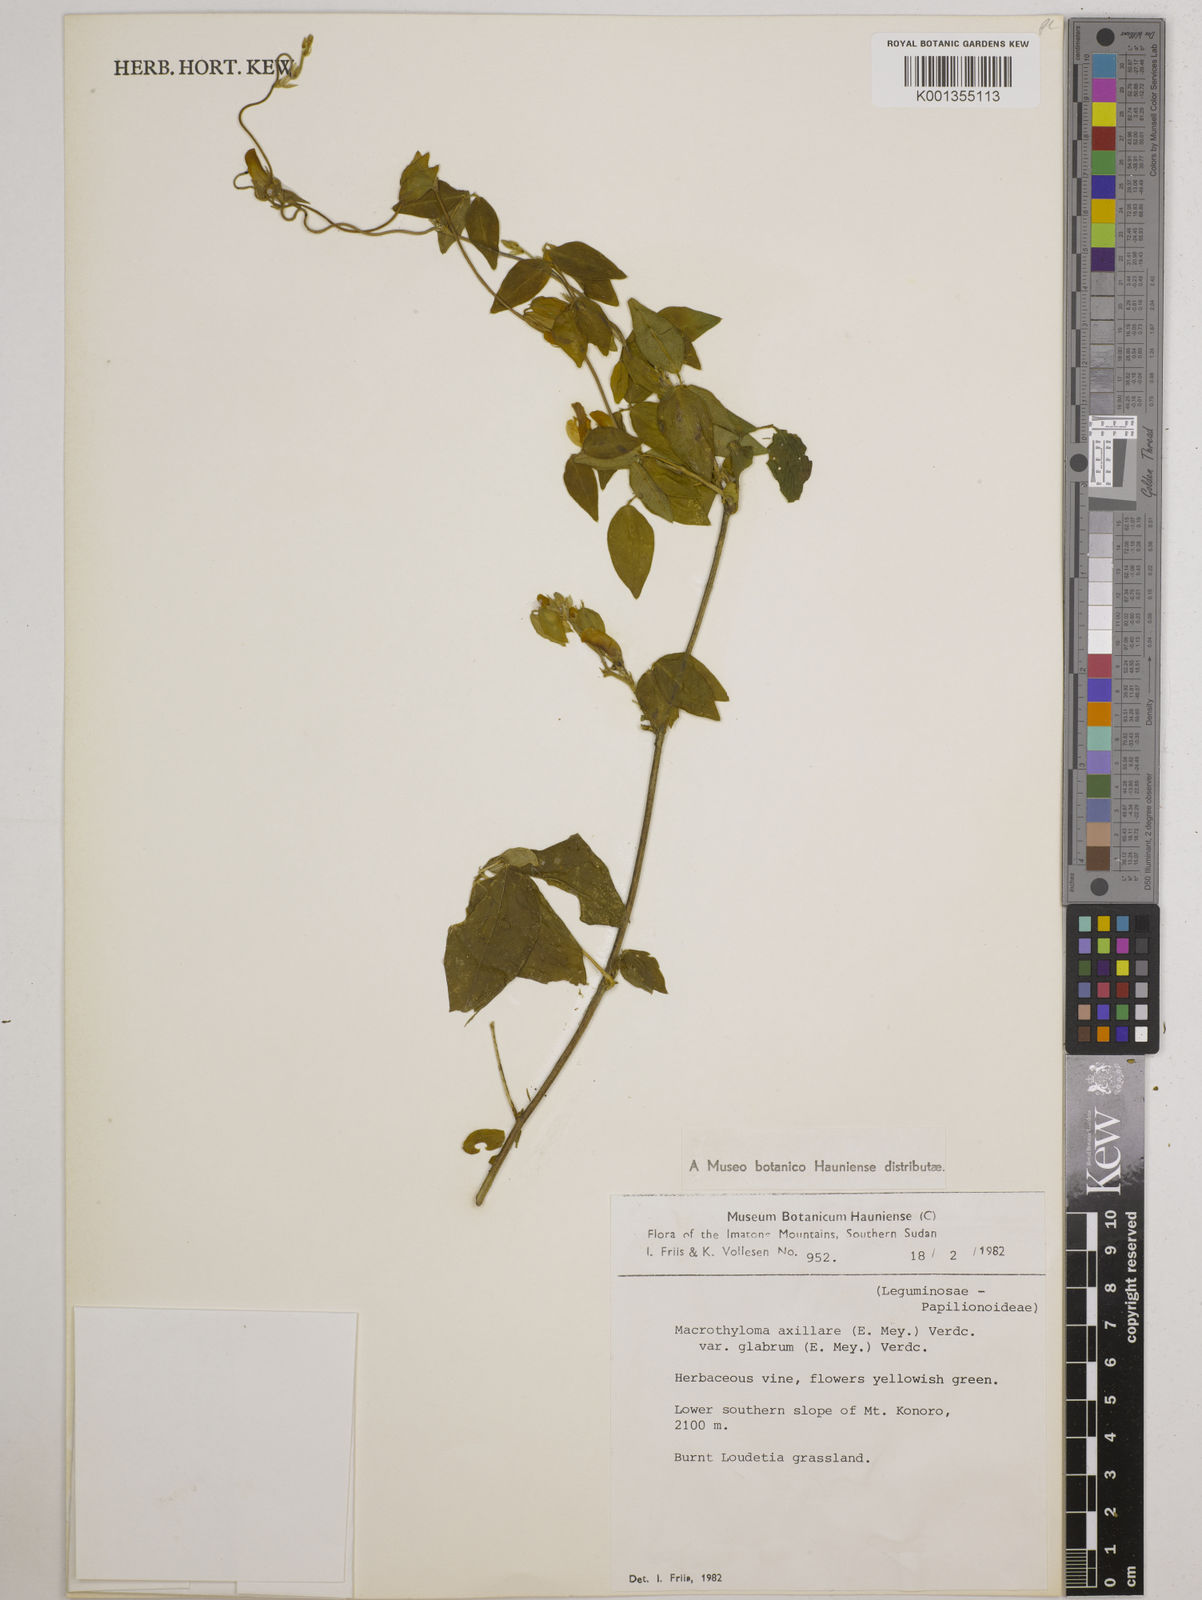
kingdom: Plantae
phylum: Tracheophyta
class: Magnoliopsida
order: Fabales
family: Fabaceae
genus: Macrotyloma
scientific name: Macrotyloma
